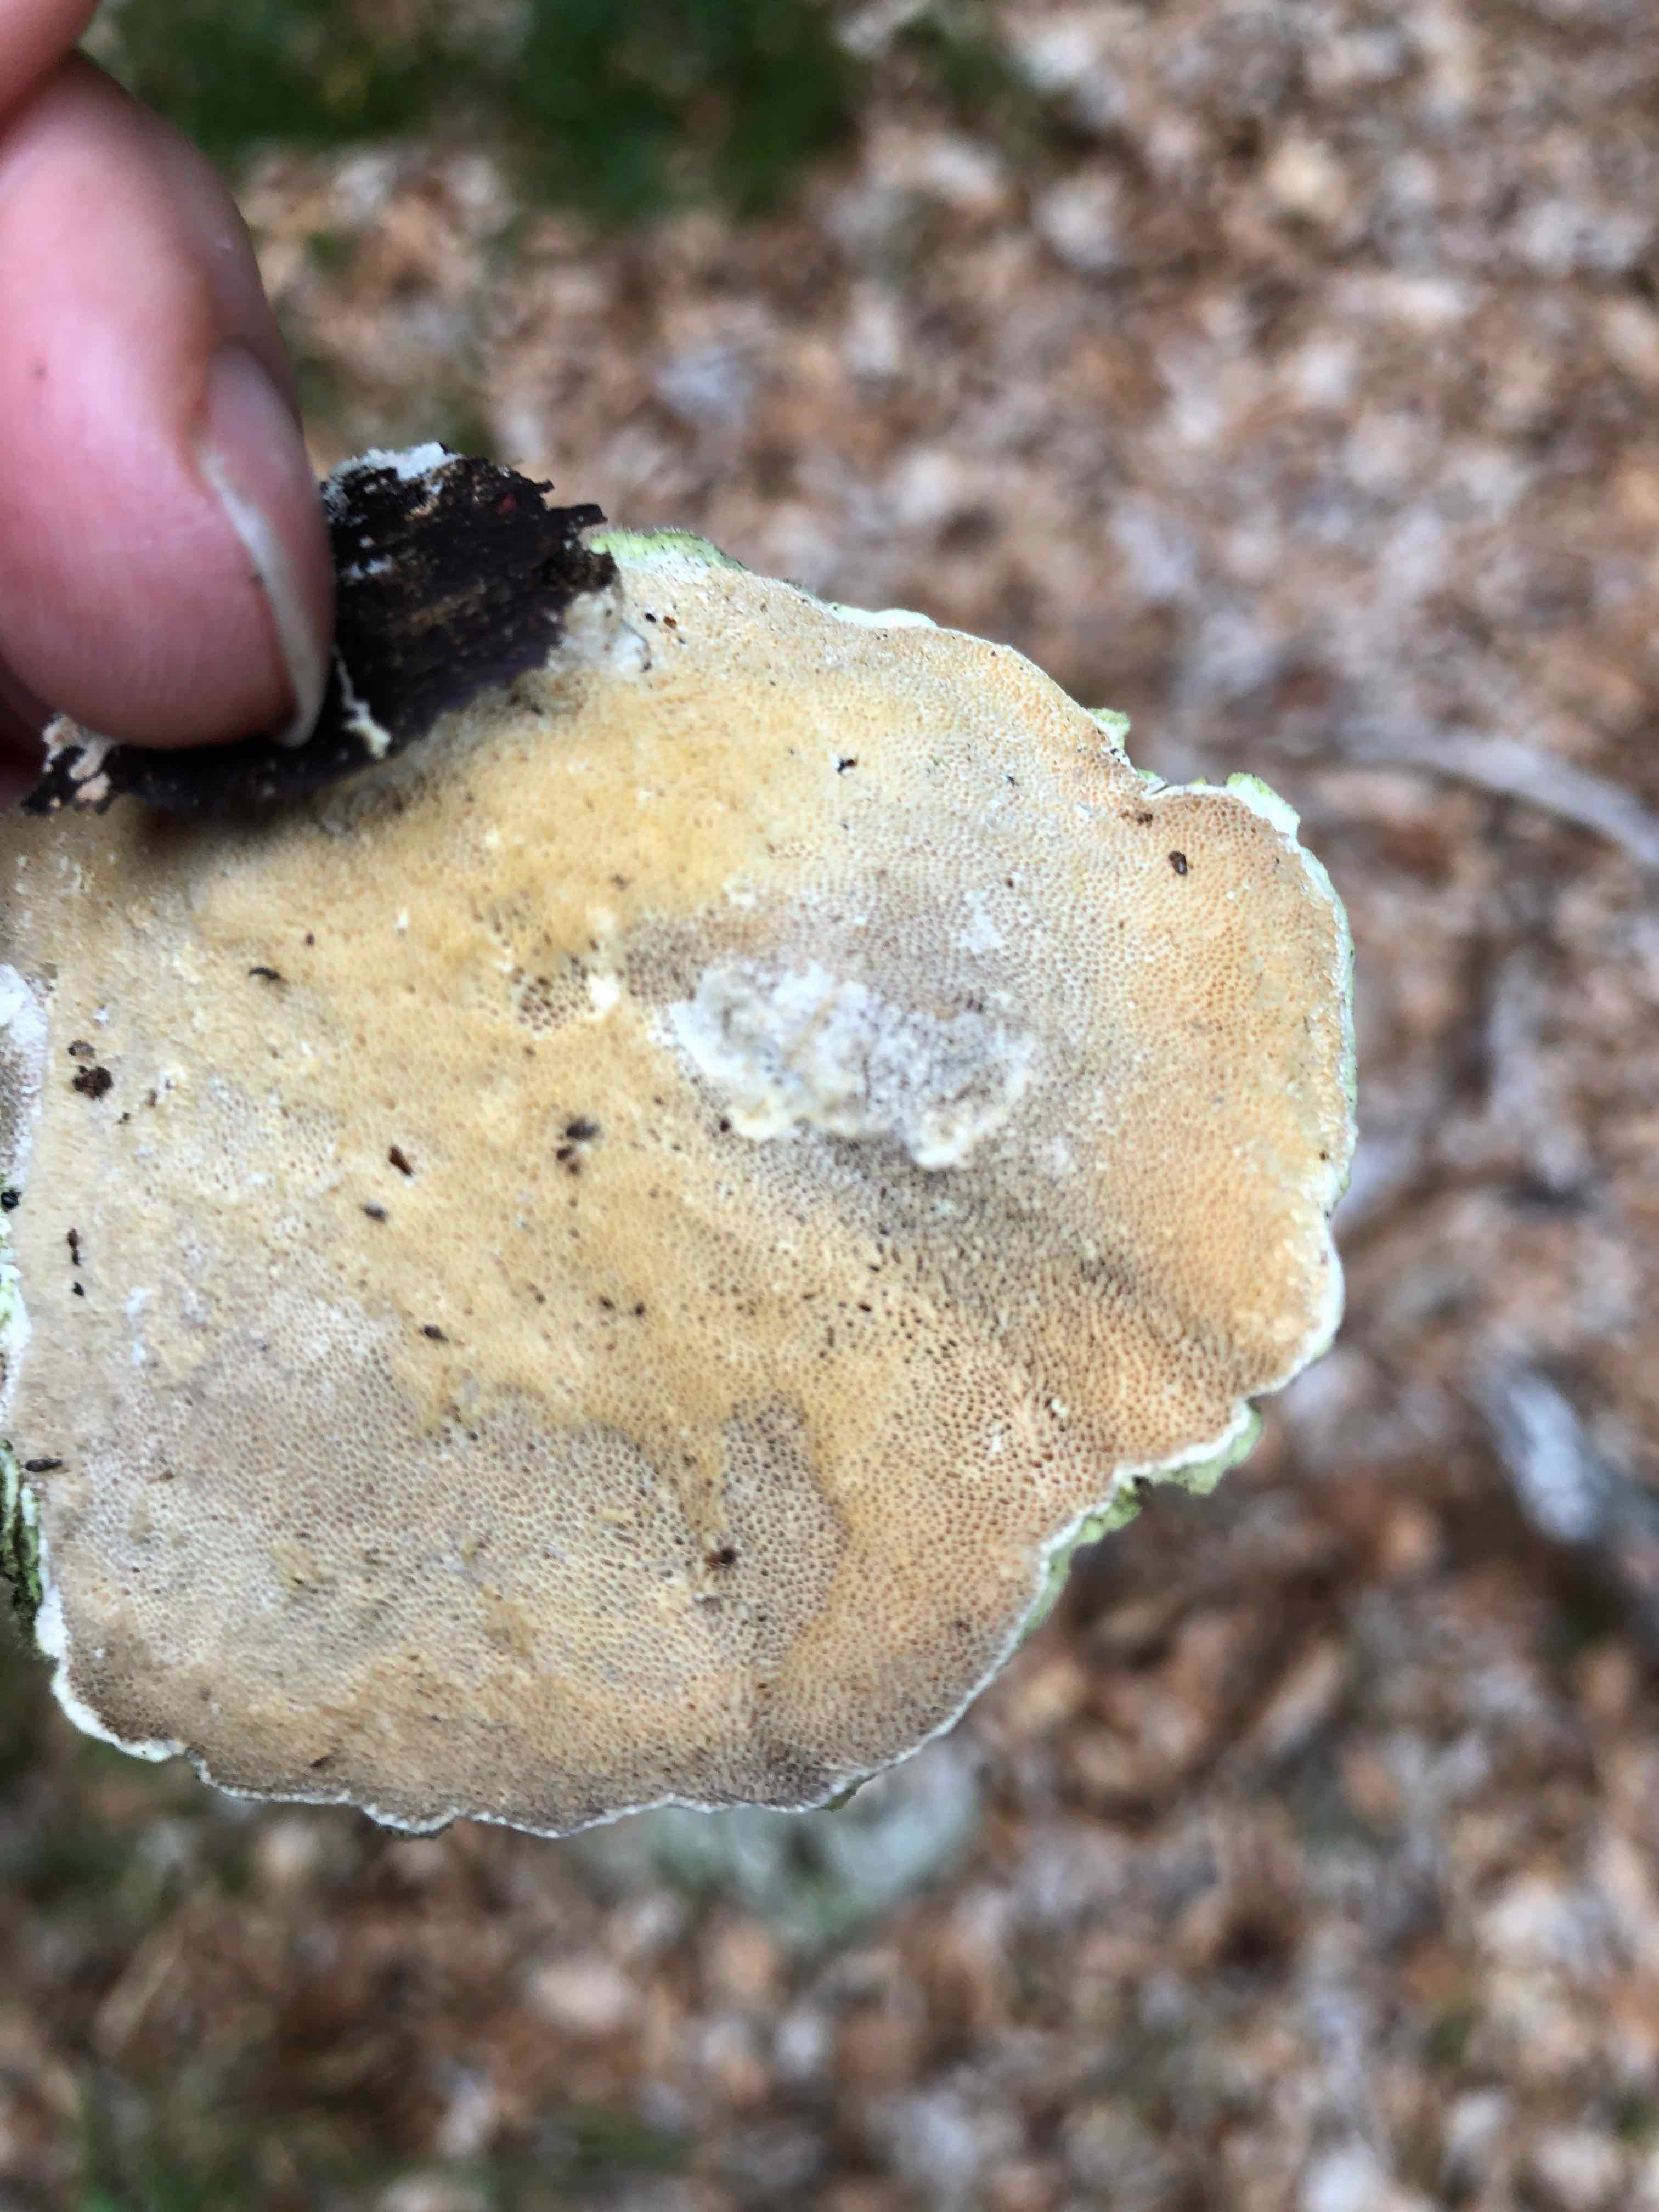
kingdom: Fungi
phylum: Basidiomycota
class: Agaricomycetes
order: Polyporales
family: Polyporaceae
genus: Trametes
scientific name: Trametes hirsuta
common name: håret læderporesvamp
